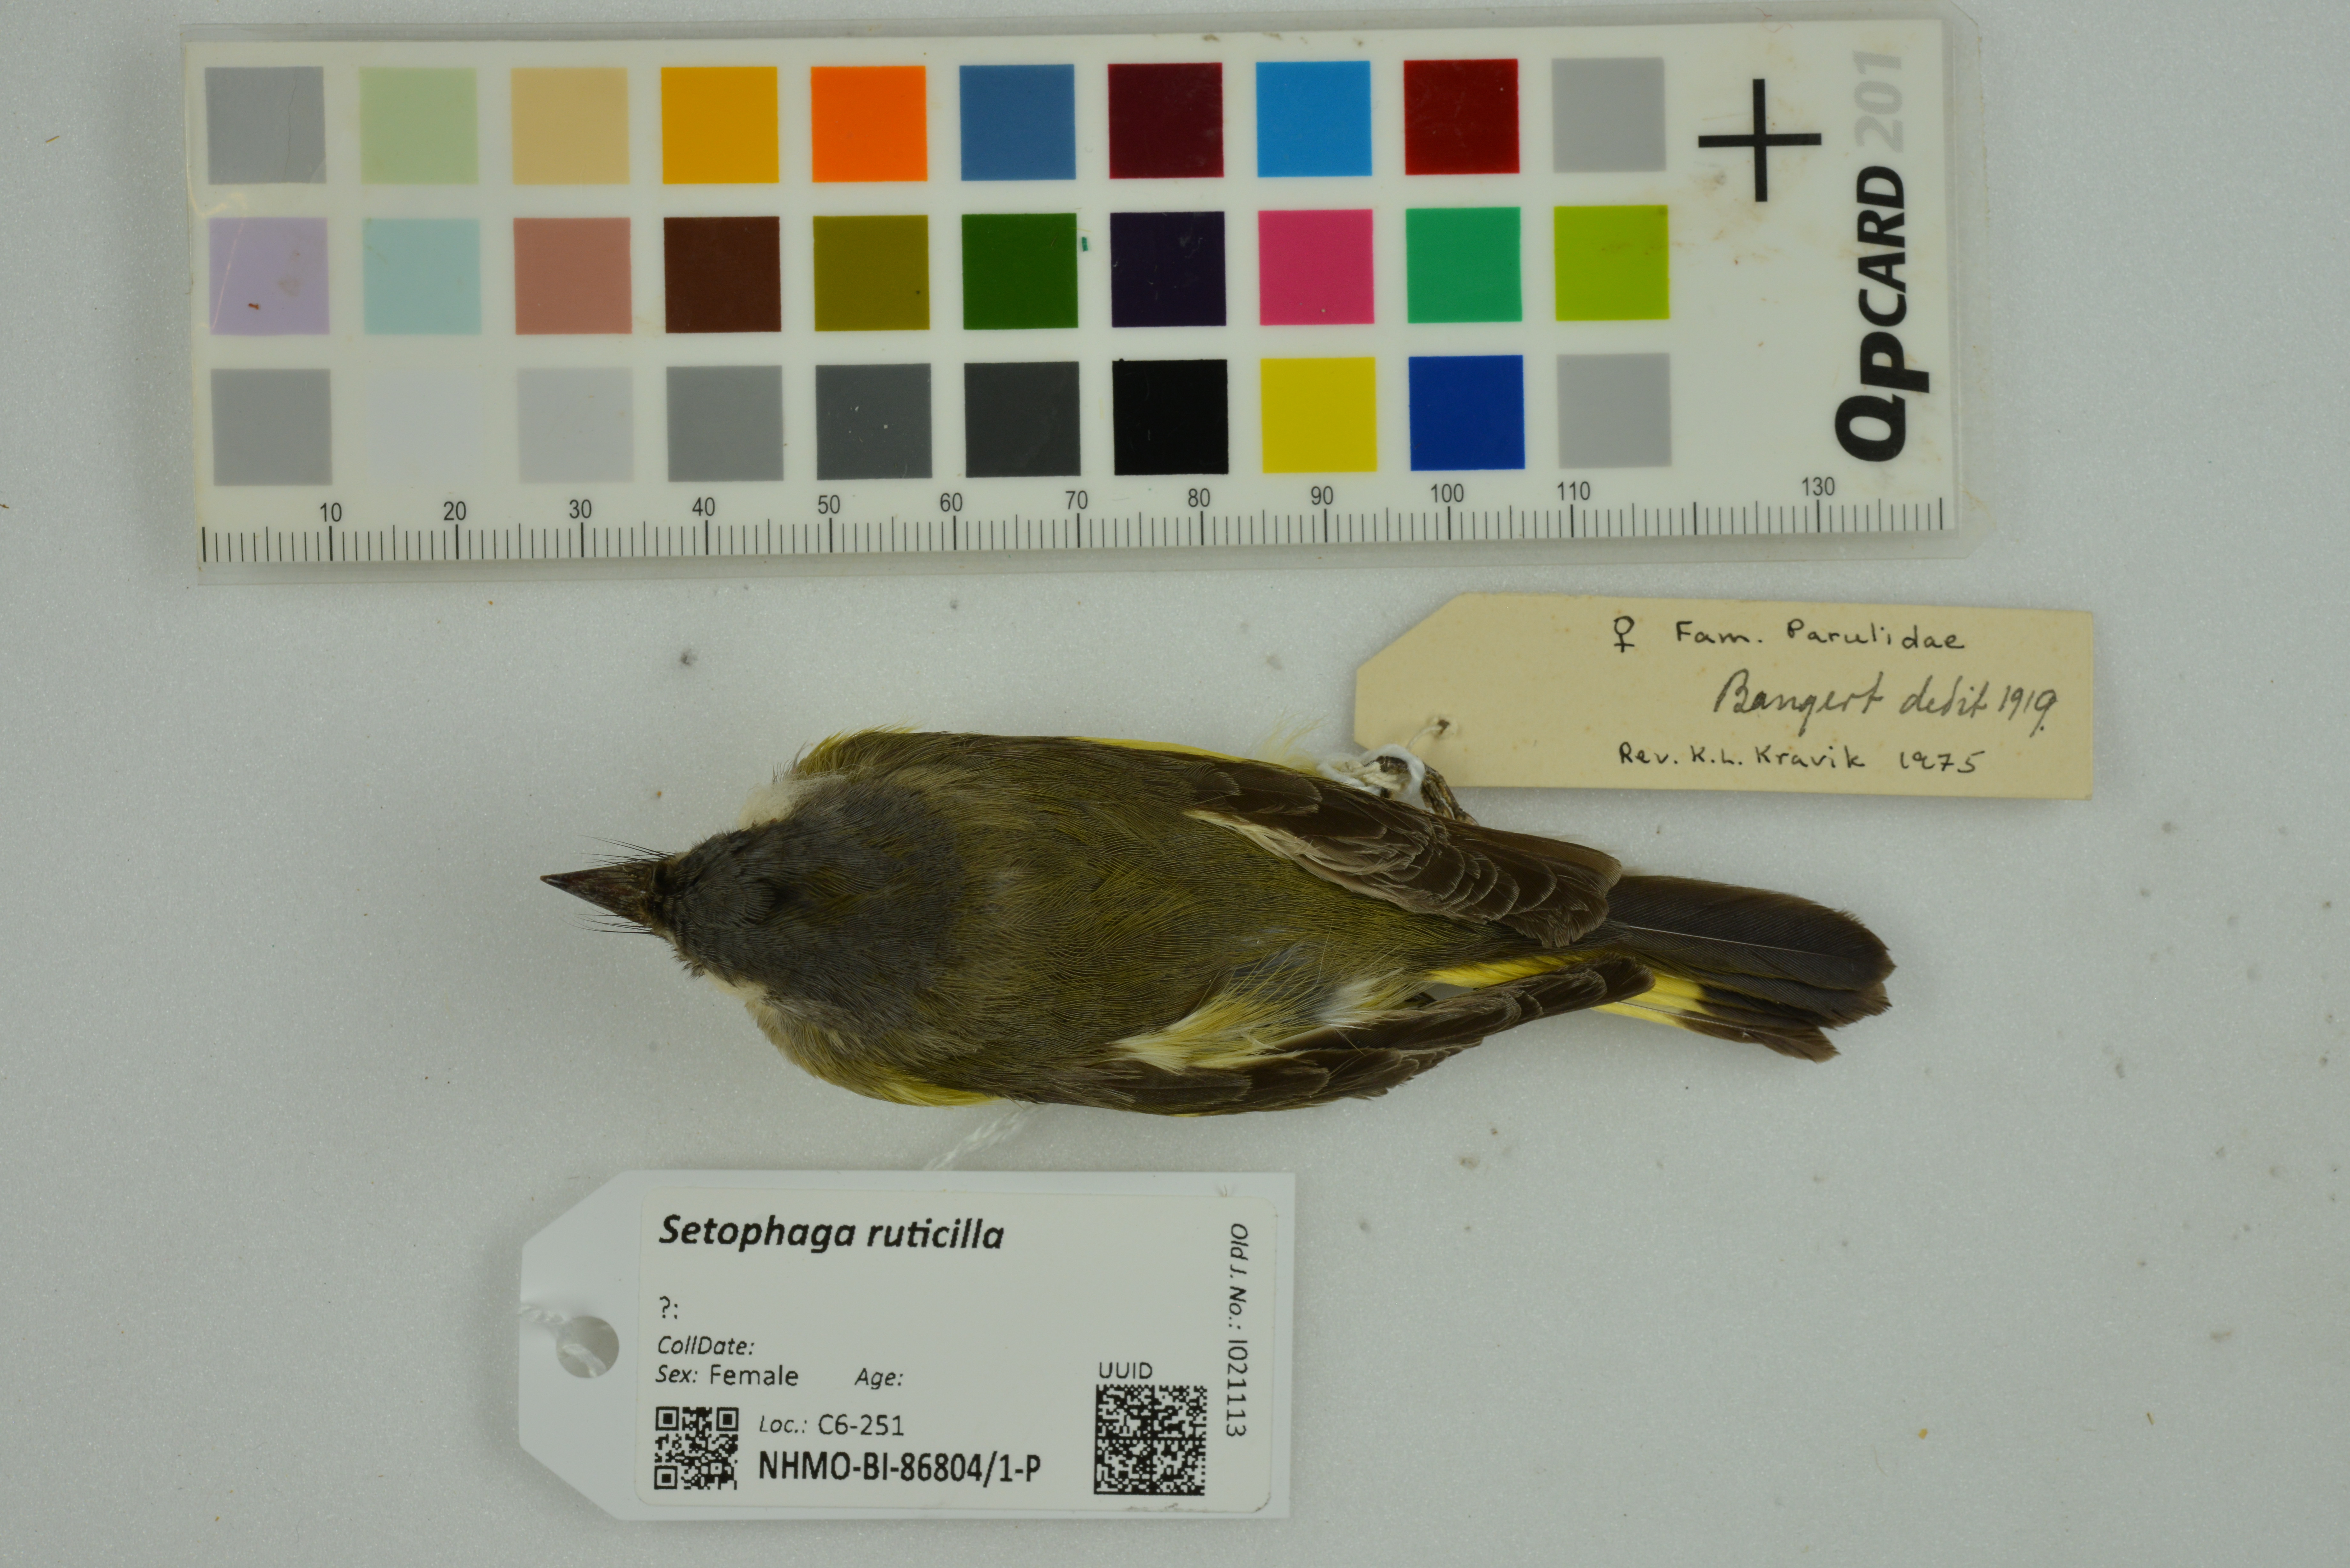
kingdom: Animalia
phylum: Chordata
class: Aves
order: Passeriformes
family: Parulidae
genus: Setophaga
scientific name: Setophaga ruticilla
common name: American redstart
